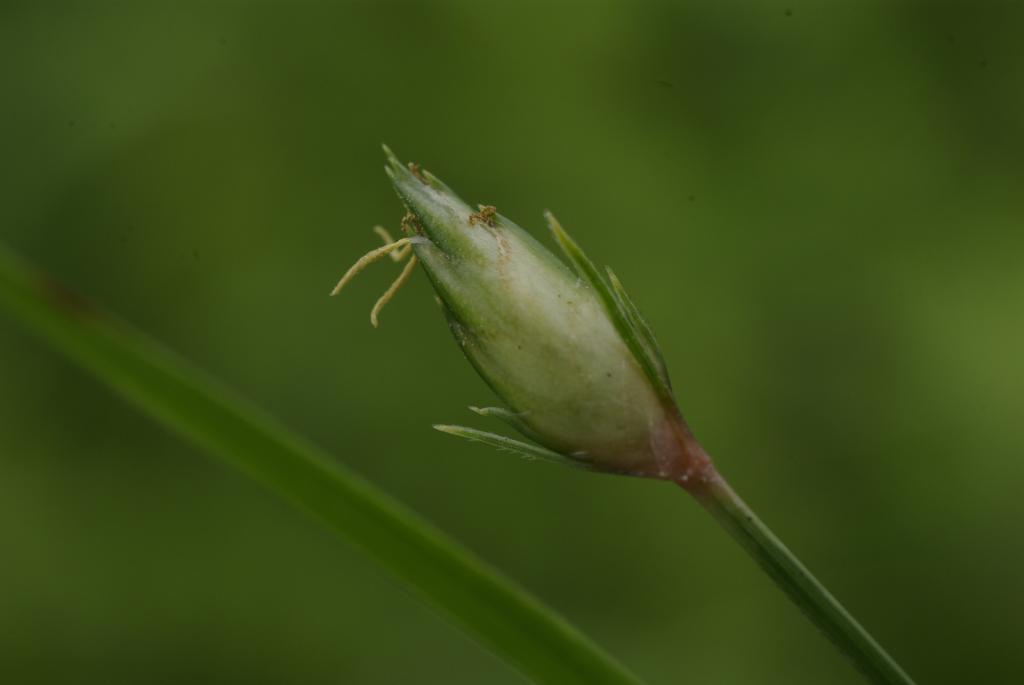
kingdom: Plantae
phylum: Tracheophyta
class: Liliopsida
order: Poales
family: Cyperaceae
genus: Abildgaardia
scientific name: Abildgaardia ovata
